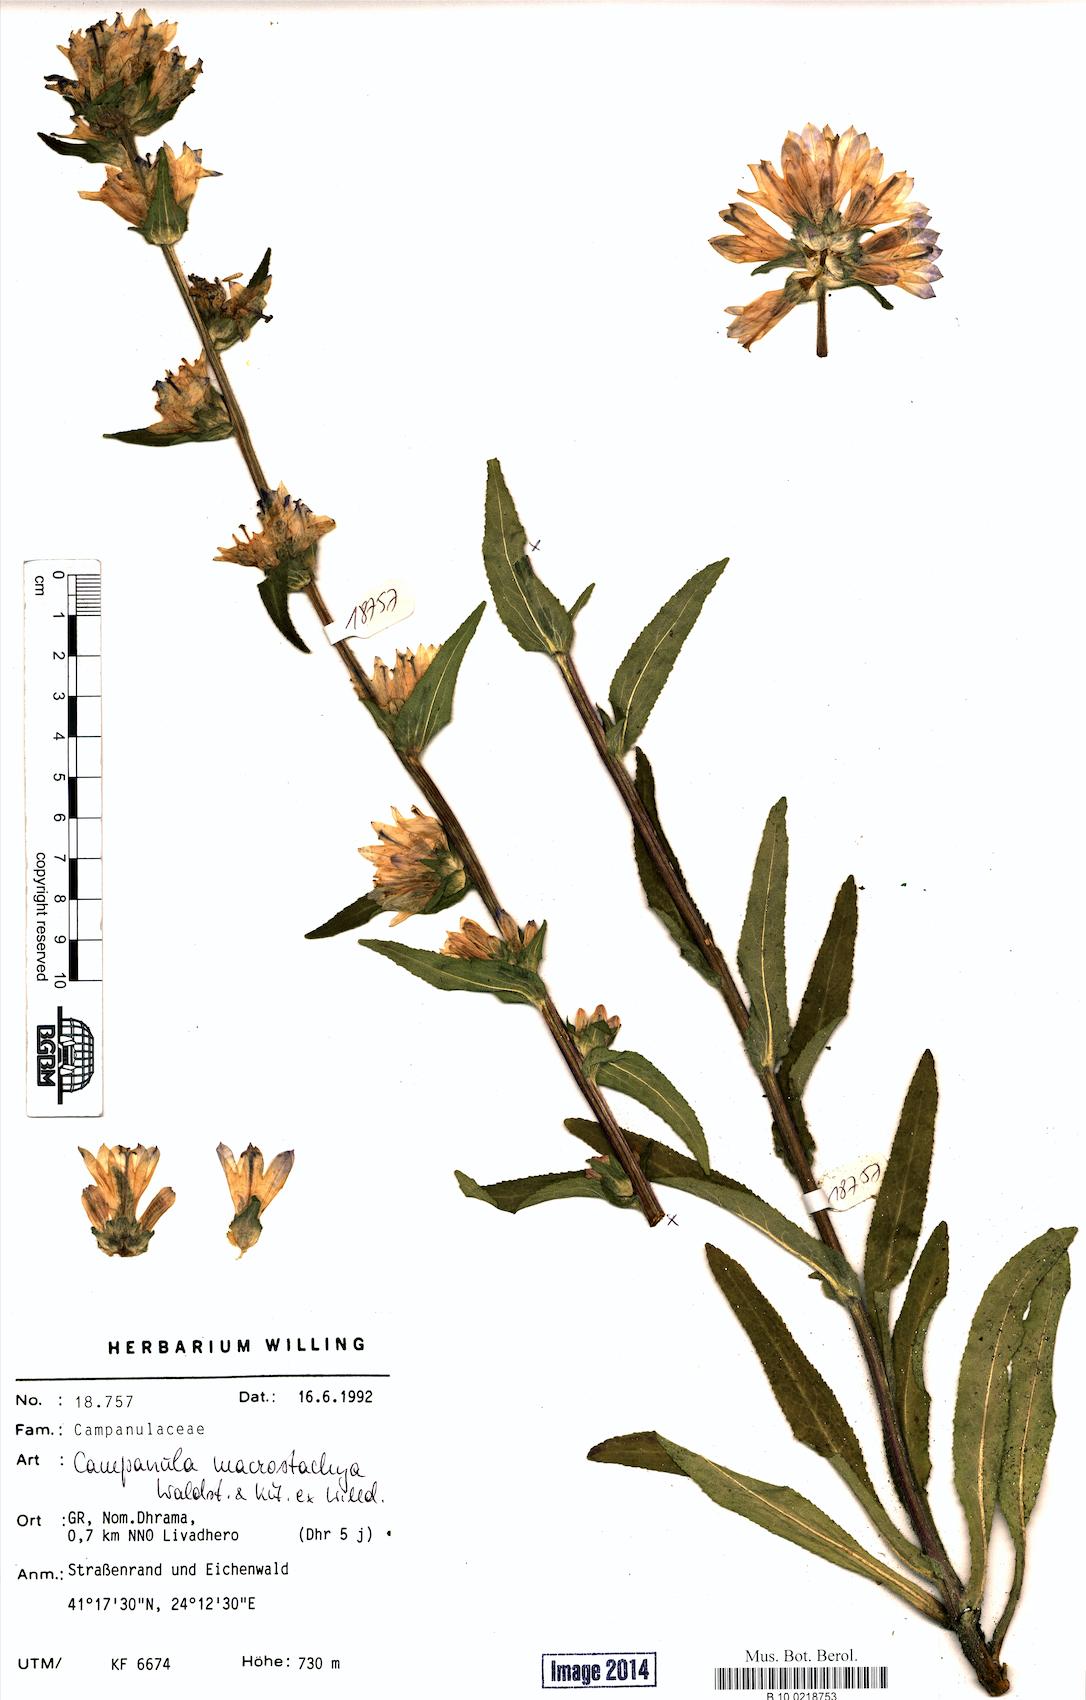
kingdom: Plantae
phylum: Tracheophyta
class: Magnoliopsida
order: Asterales
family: Campanulaceae
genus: Campanula
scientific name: Campanula macrostachya
